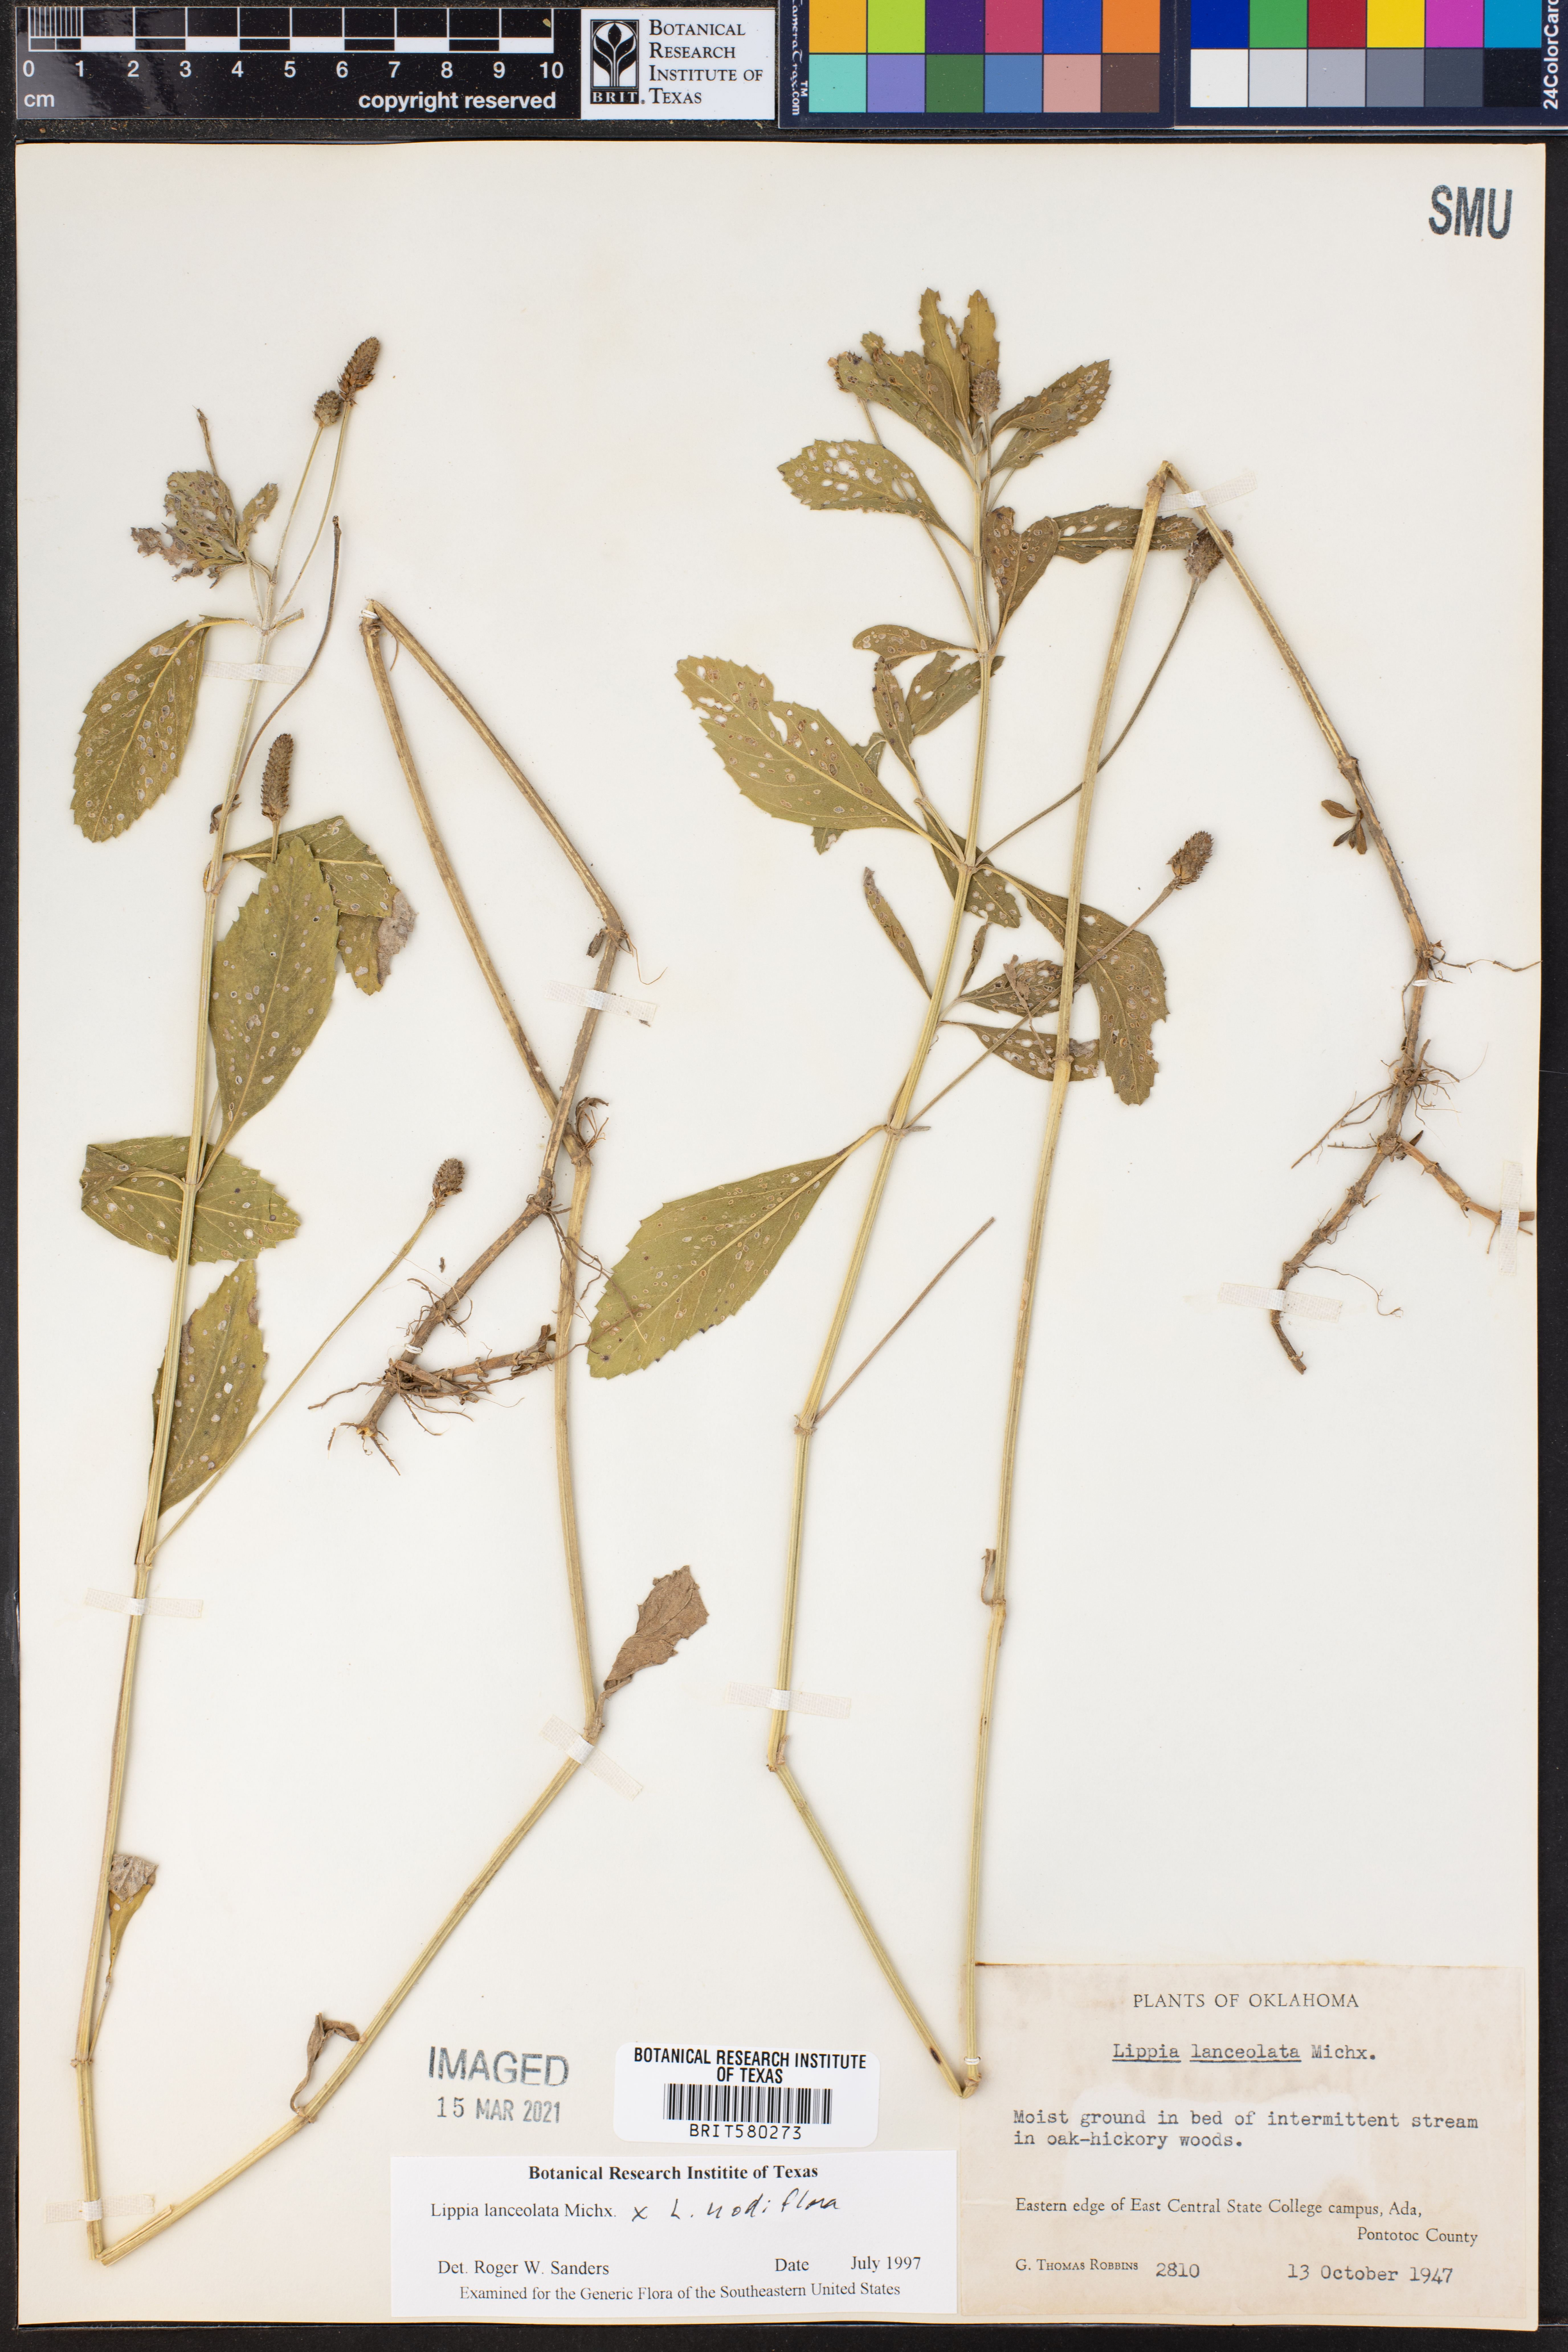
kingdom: Plantae
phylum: Tracheophyta
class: Magnoliopsida
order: Lamiales
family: Verbenaceae
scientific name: Verbenaceae
